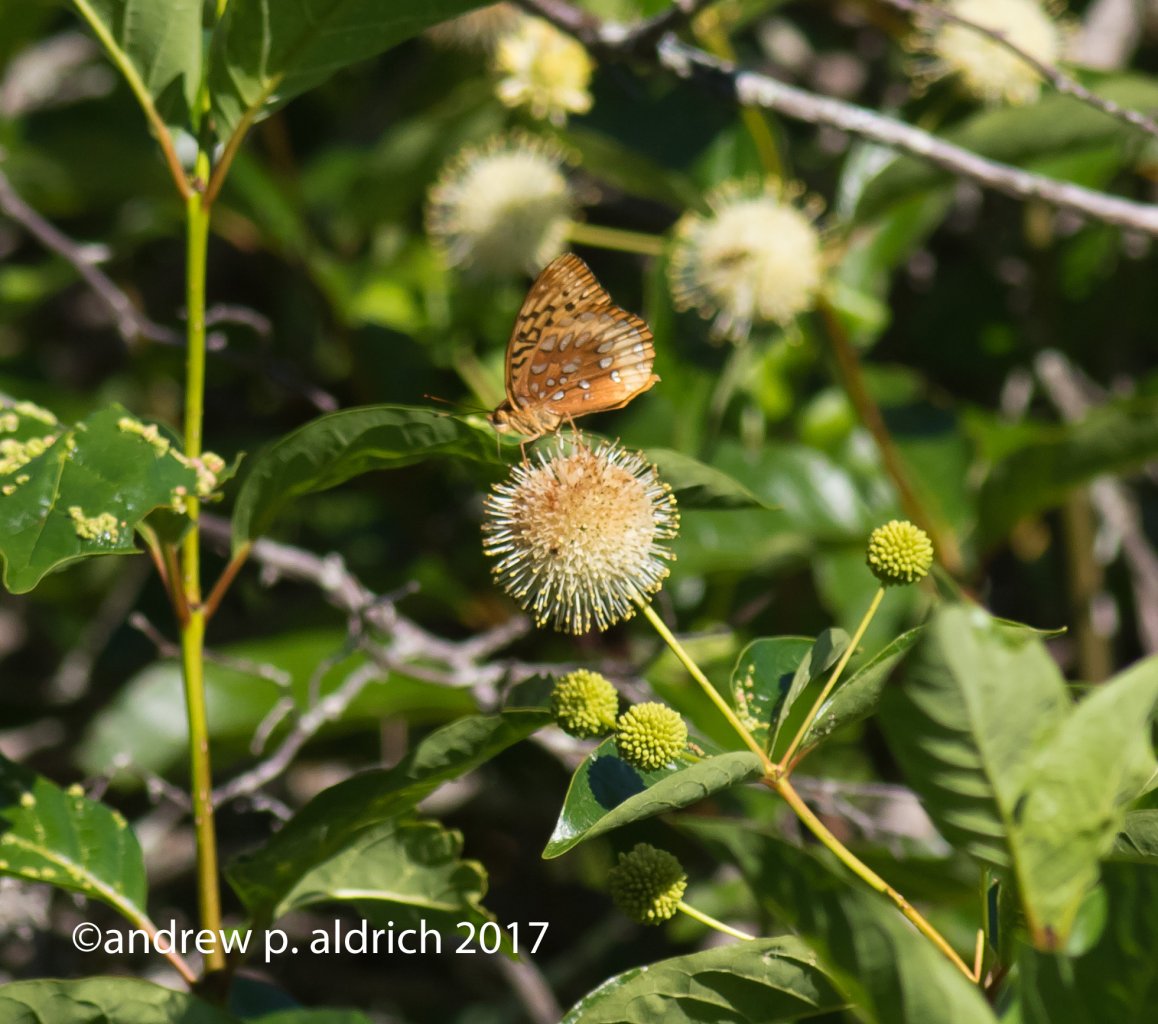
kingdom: Animalia
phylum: Arthropoda
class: Insecta
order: Lepidoptera
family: Nymphalidae
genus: Speyeria
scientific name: Speyeria cybele
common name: Great Spangled Fritillary
